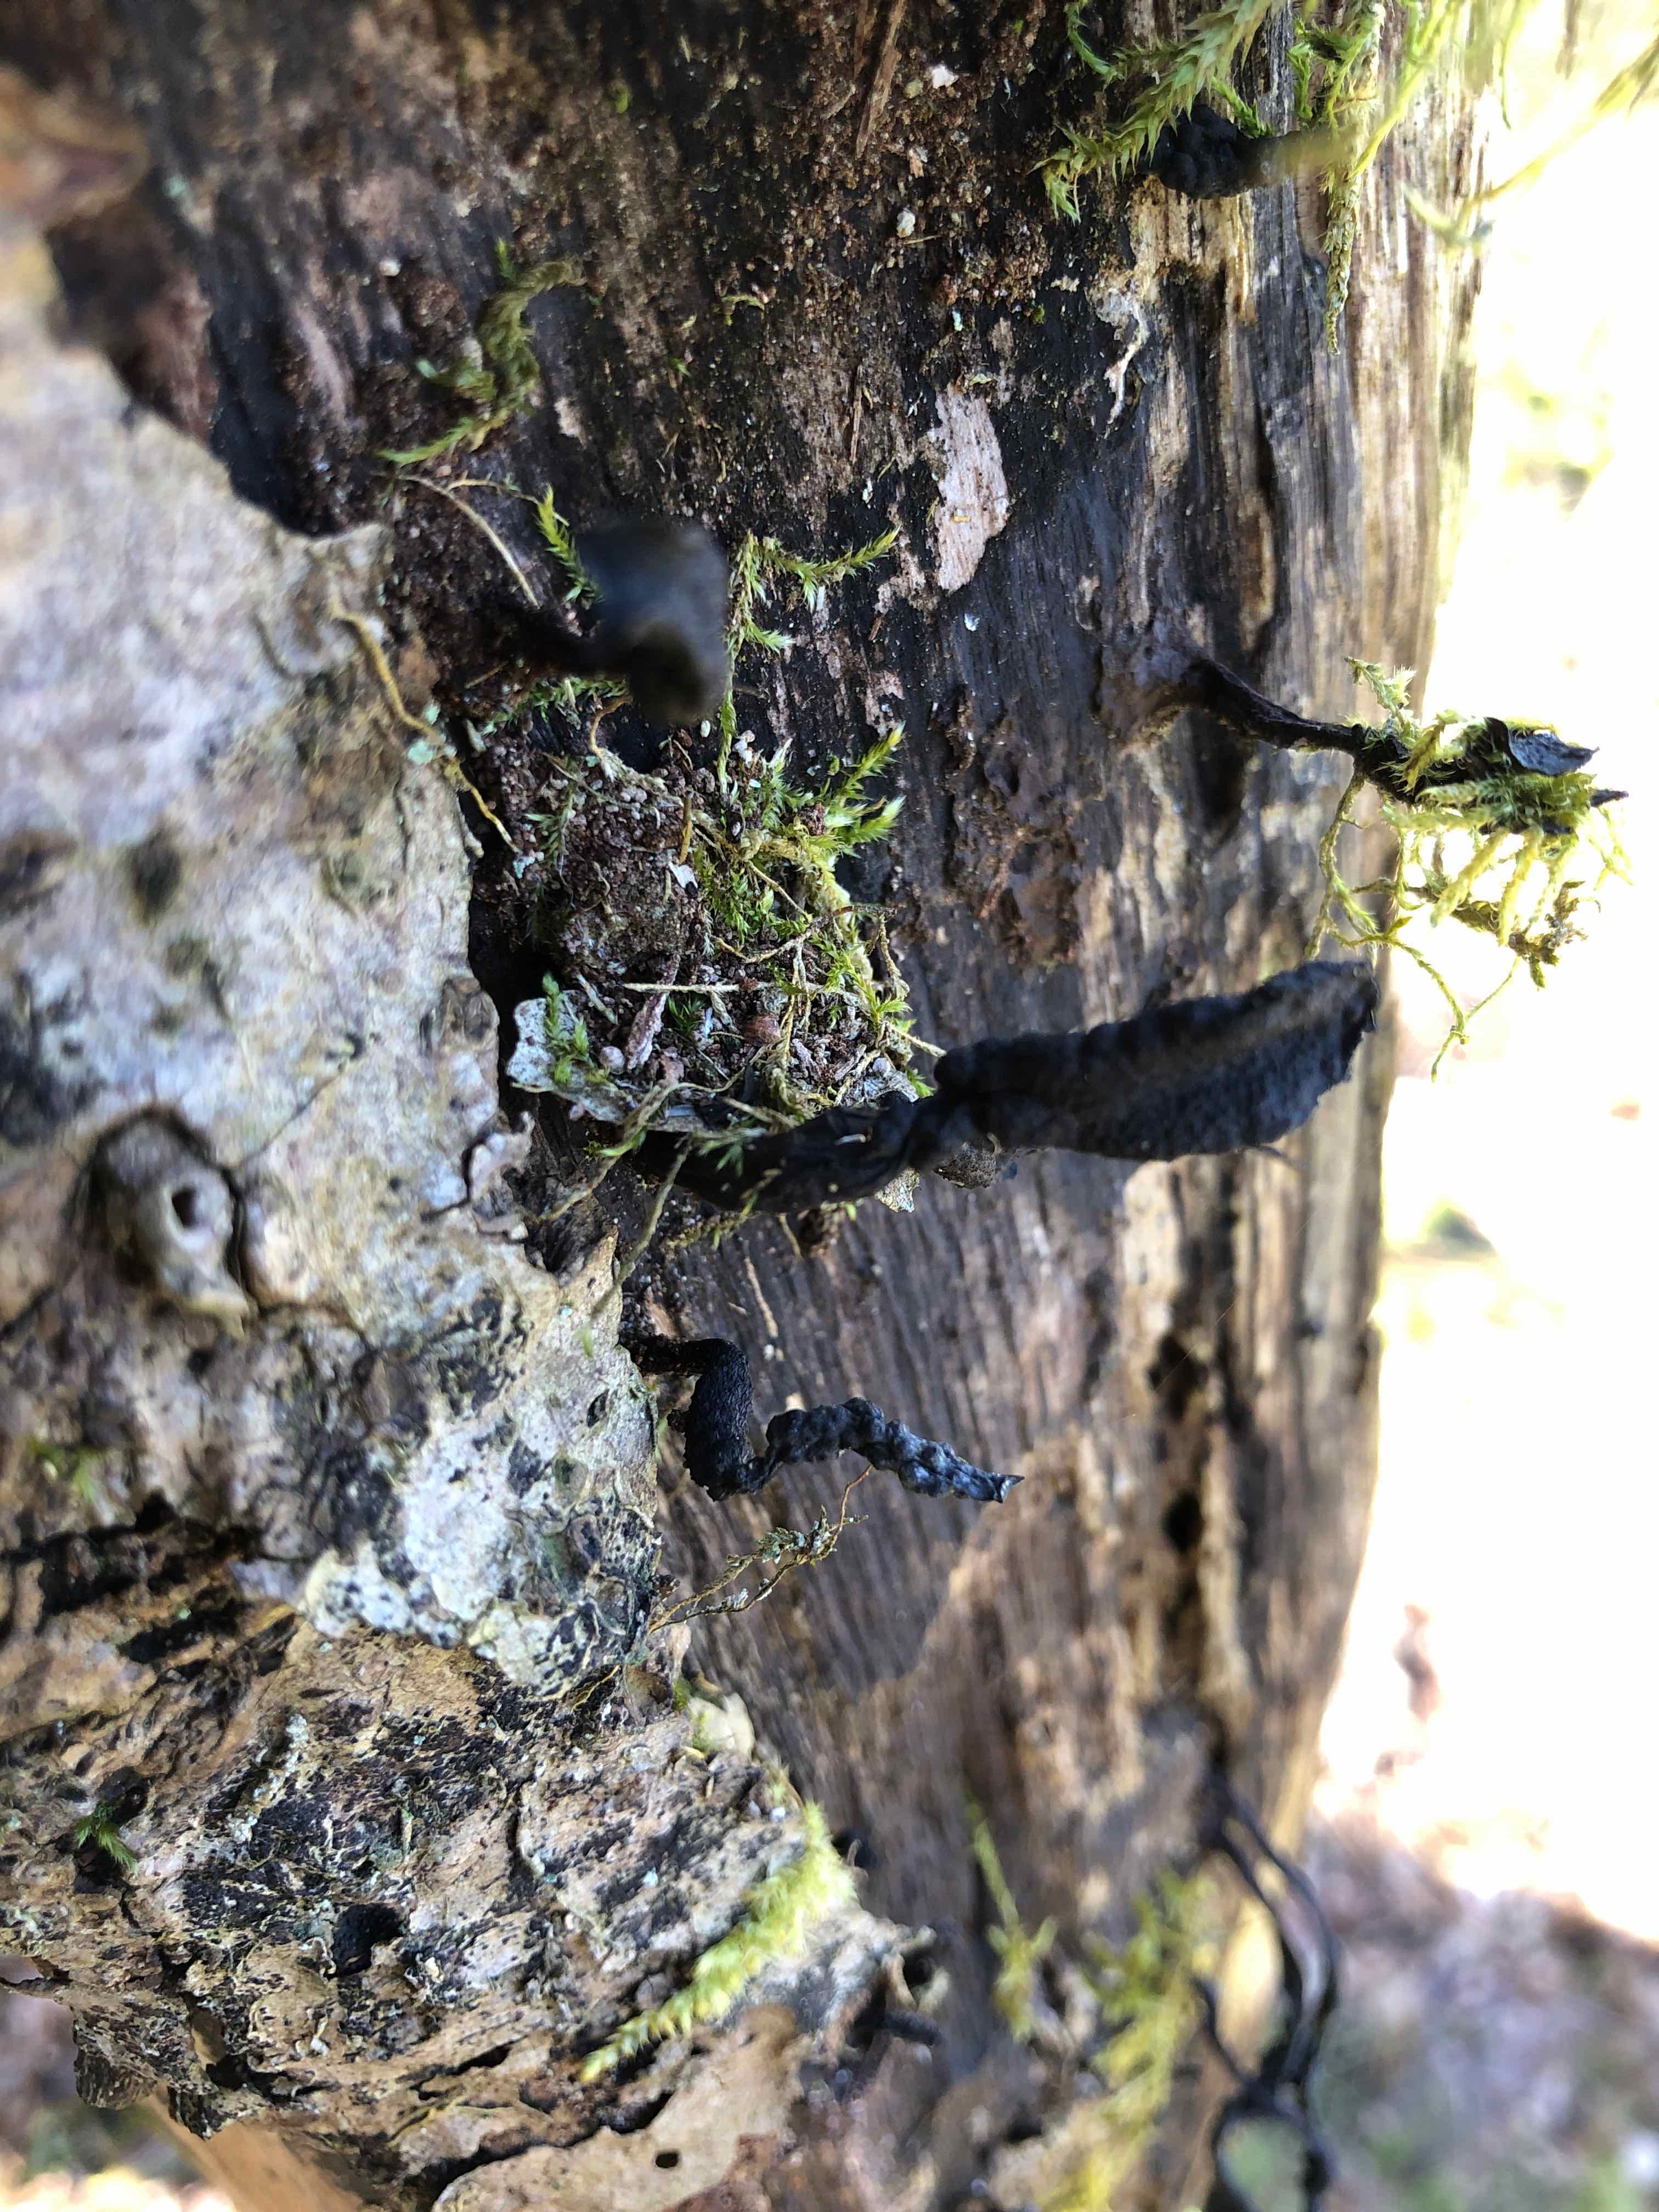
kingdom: Fungi
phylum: Ascomycota
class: Sordariomycetes
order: Xylariales
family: Xylariaceae
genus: Xylaria
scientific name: Xylaria hypoxylon
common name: grenet stødsvamp
